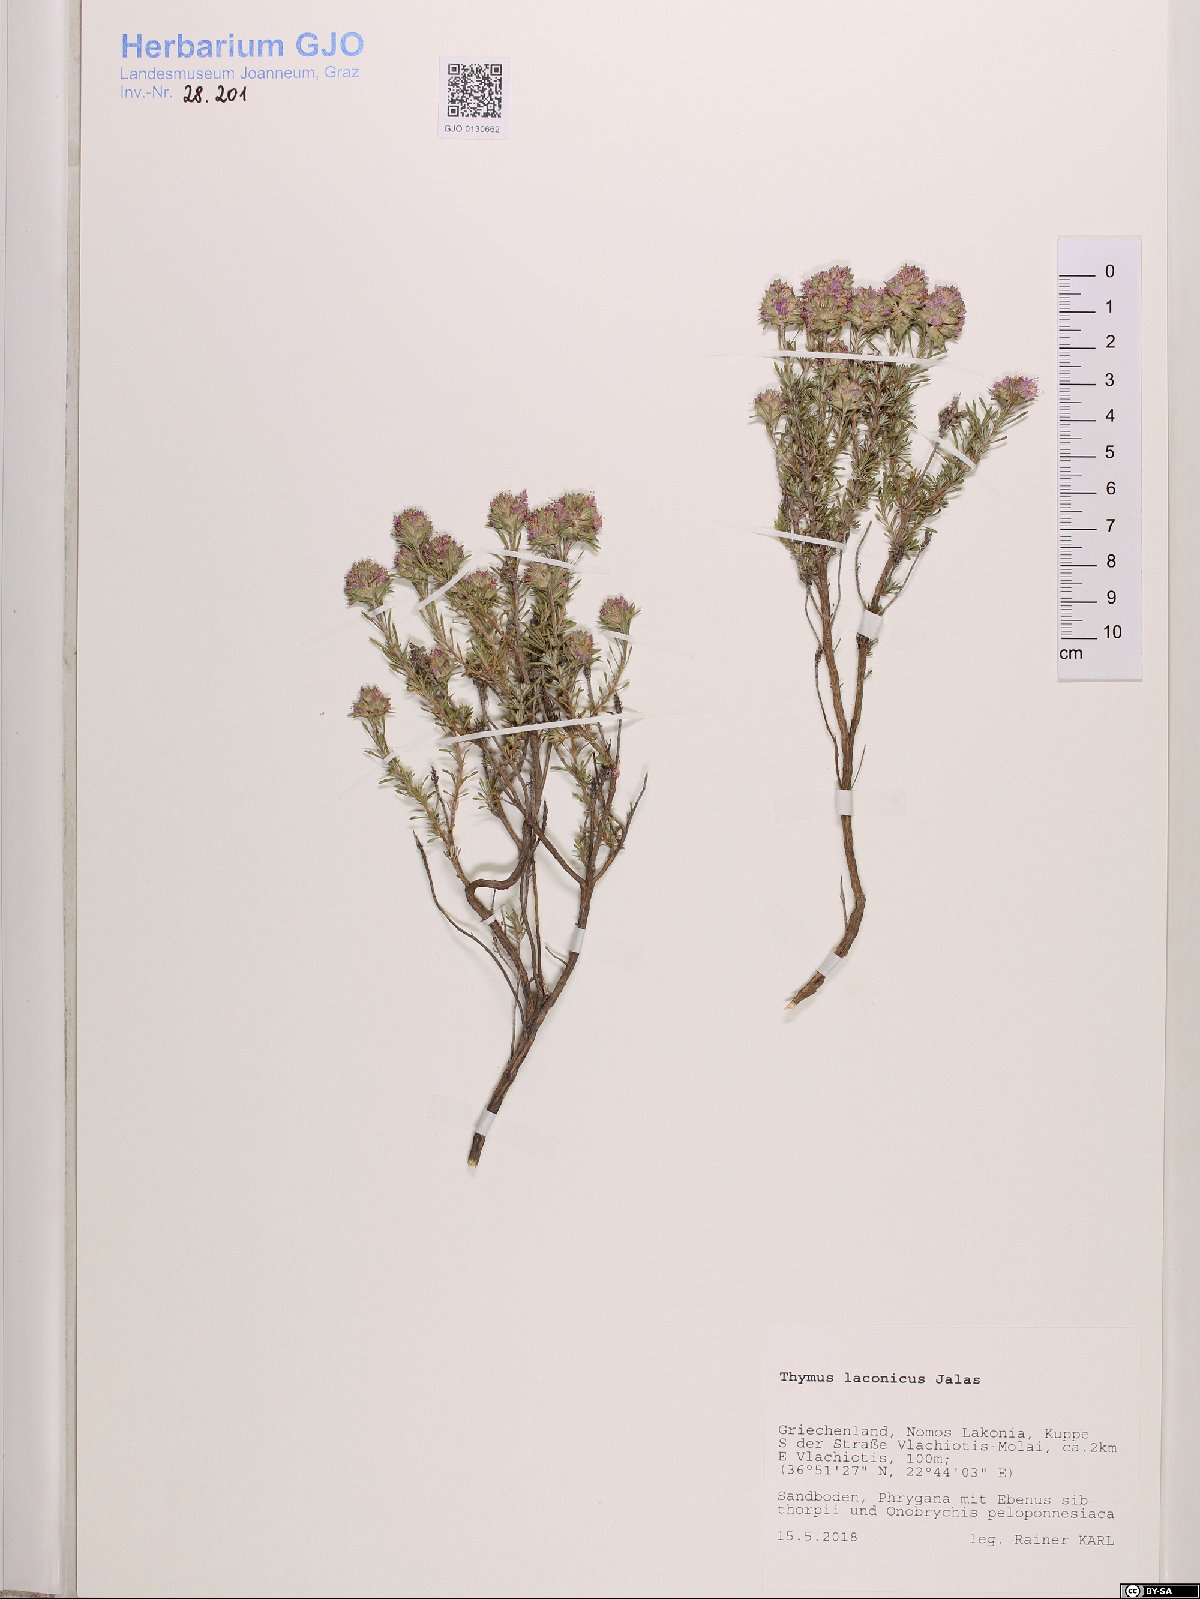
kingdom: Plantae
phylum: Tracheophyta
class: Magnoliopsida
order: Lamiales
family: Lamiaceae
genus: Thymus
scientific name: Thymus laconicus
